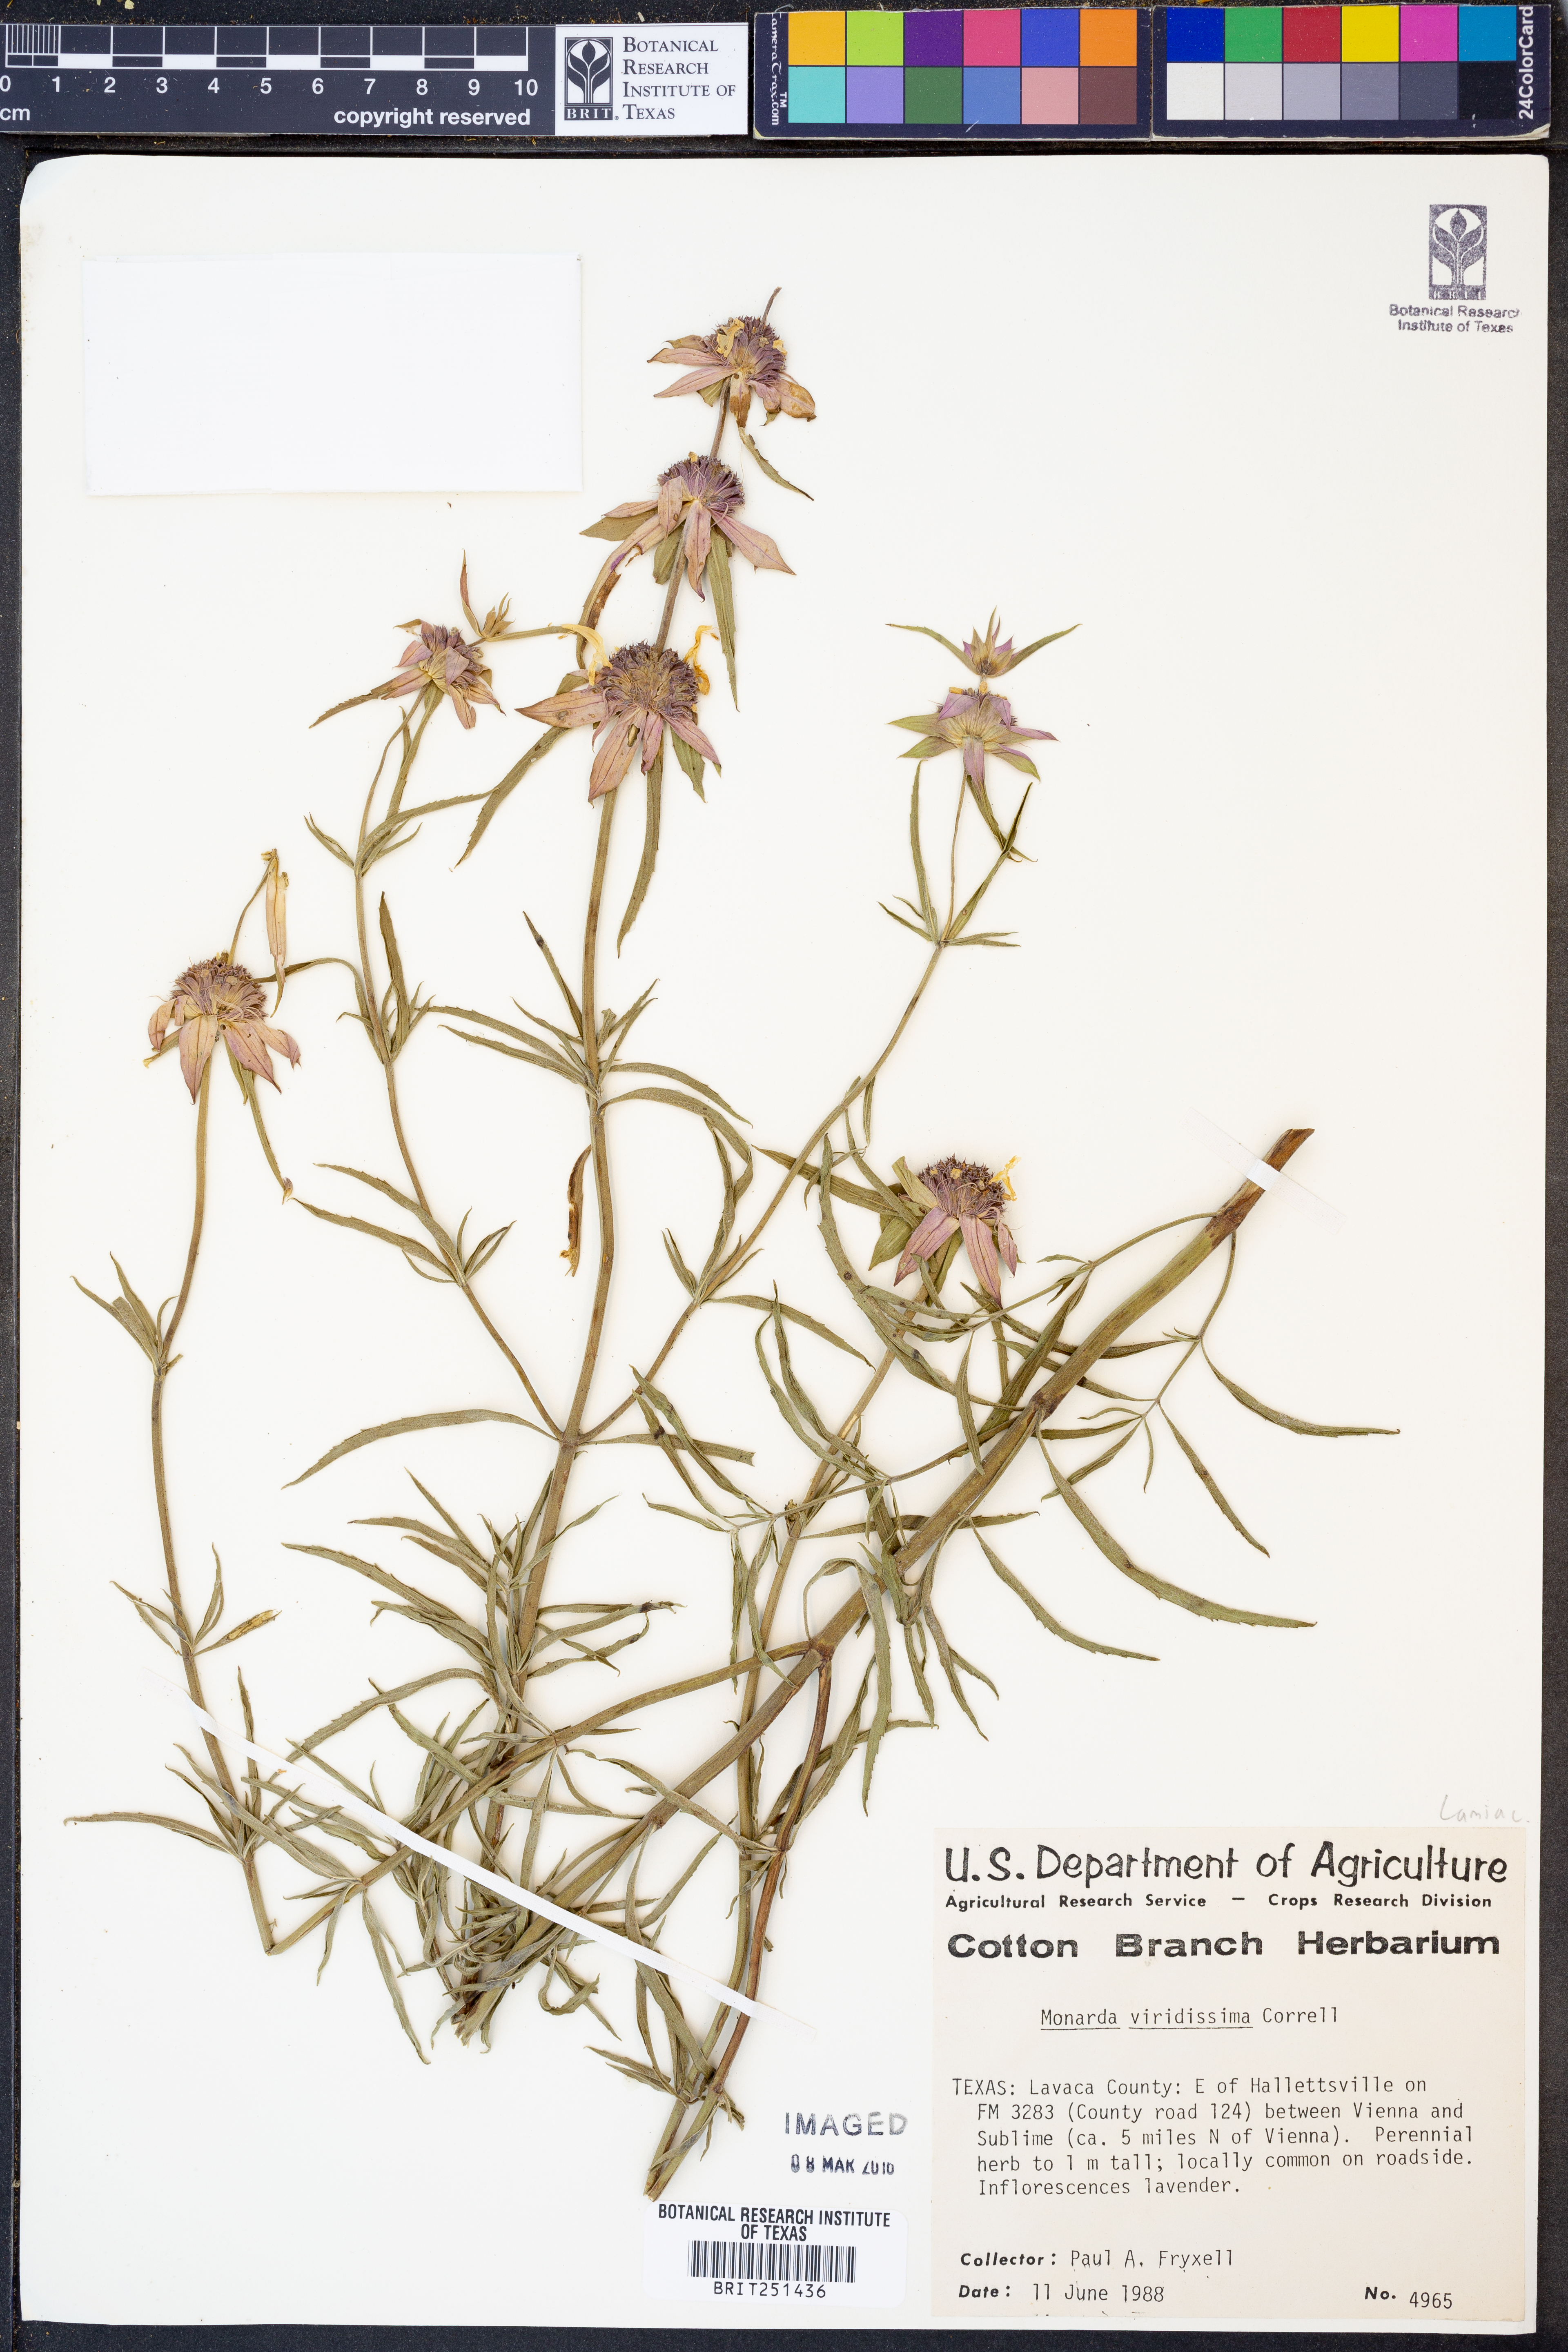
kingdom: Plantae
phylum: Tracheophyta
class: Magnoliopsida
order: Lamiales
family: Lamiaceae
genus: Monarda
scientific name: Monarda viridissima
